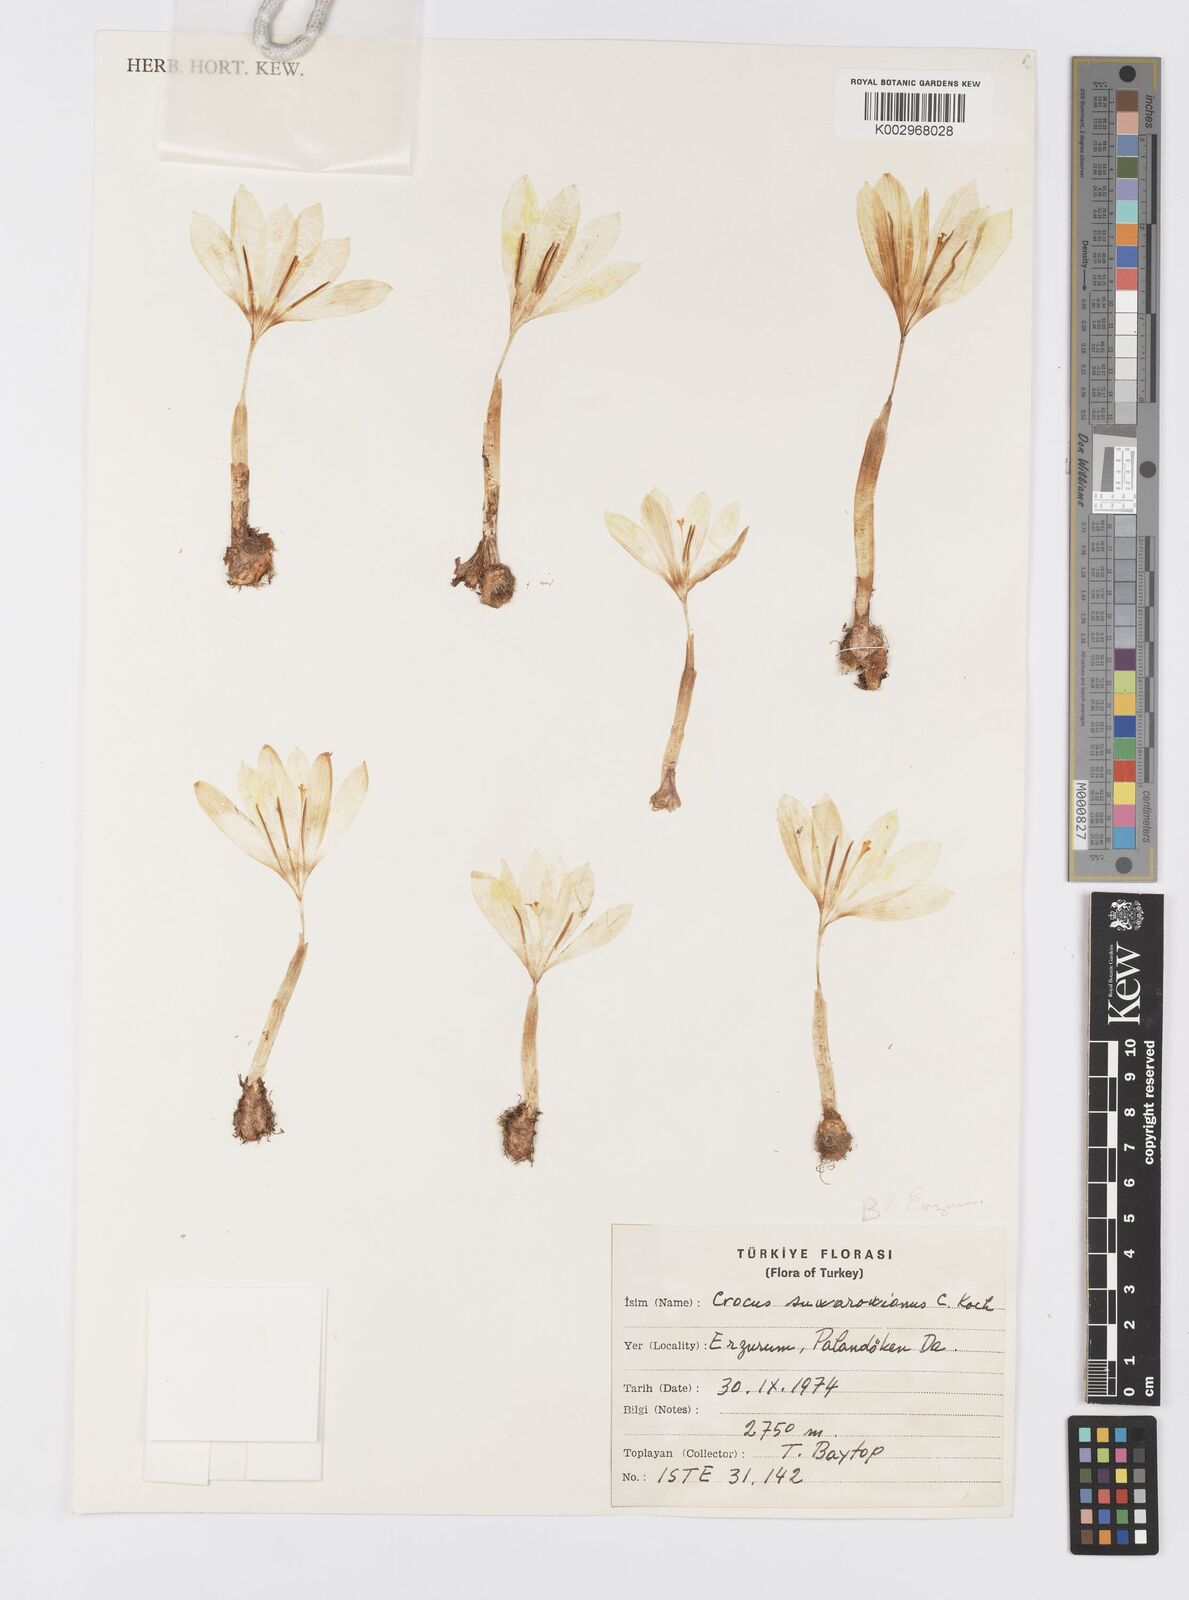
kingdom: Plantae
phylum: Tracheophyta
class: Liliopsida
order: Asparagales
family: Iridaceae
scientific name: Iridaceae
